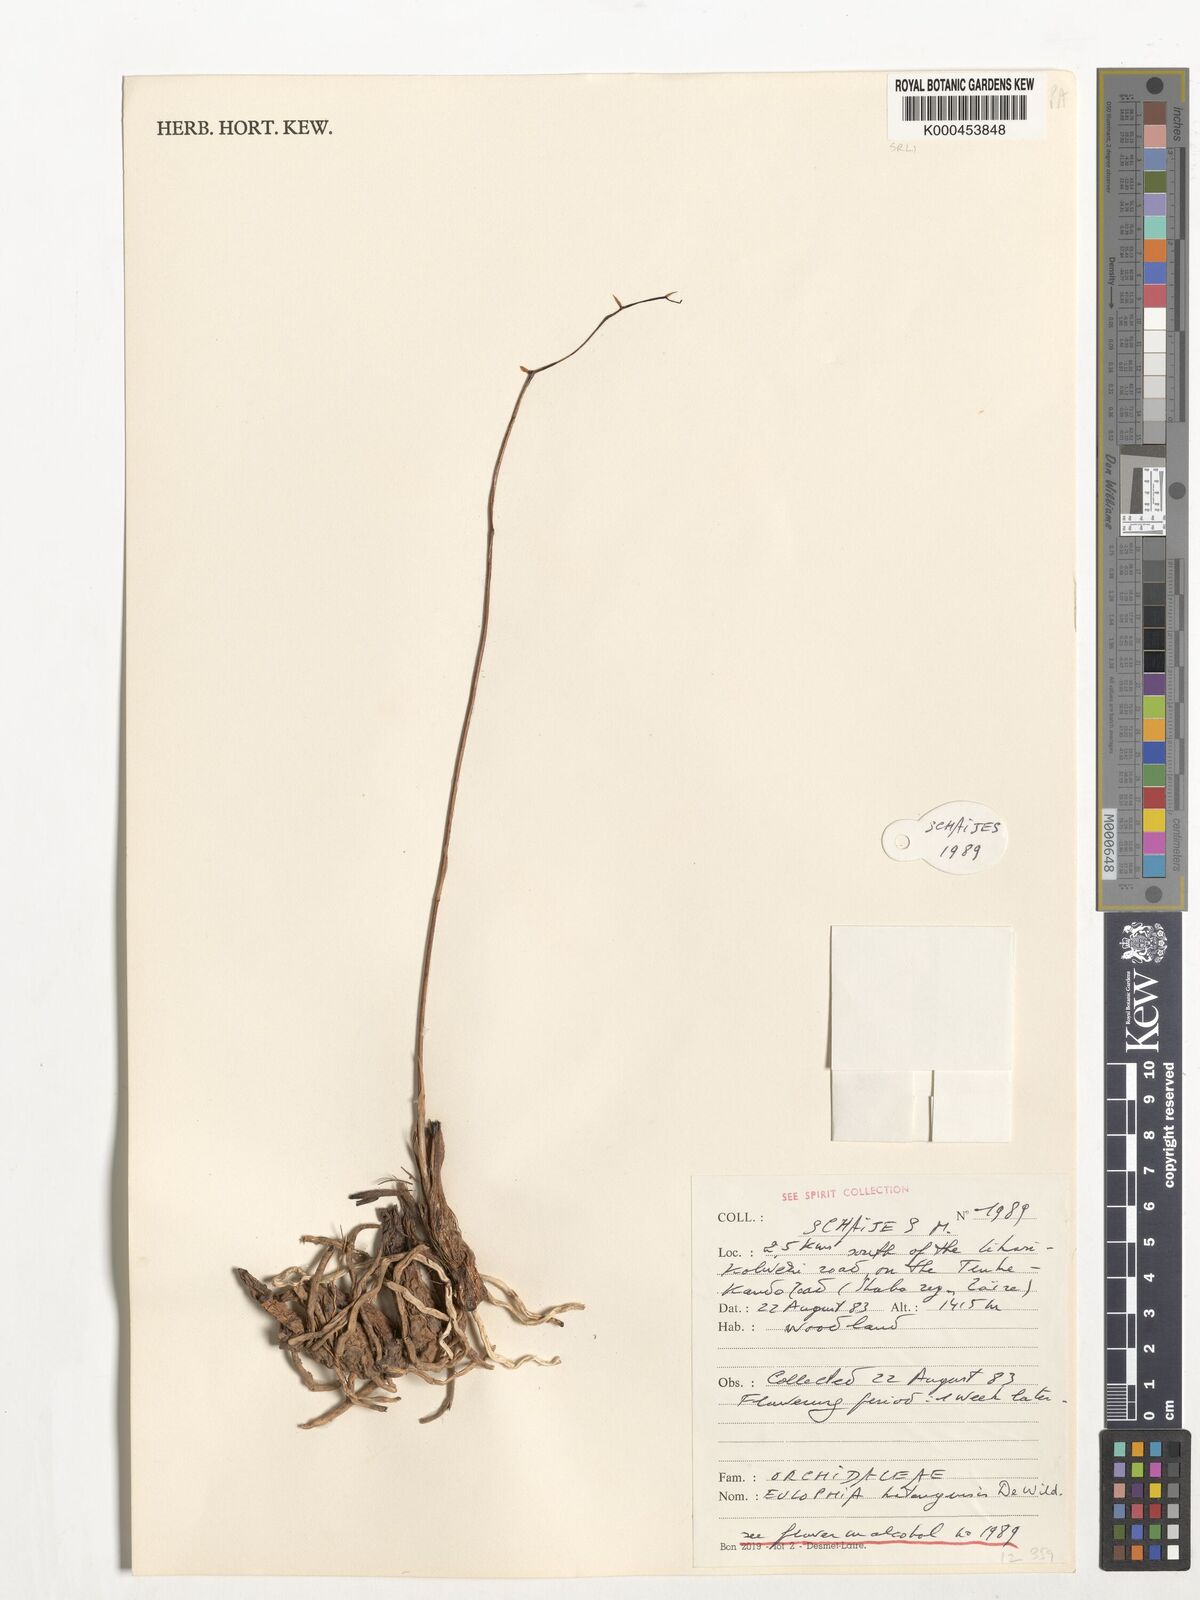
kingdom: Plantae
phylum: Tracheophyta
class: Liliopsida
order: Asparagales
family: Orchidaceae
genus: Eulophia
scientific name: Eulophia katangensis
